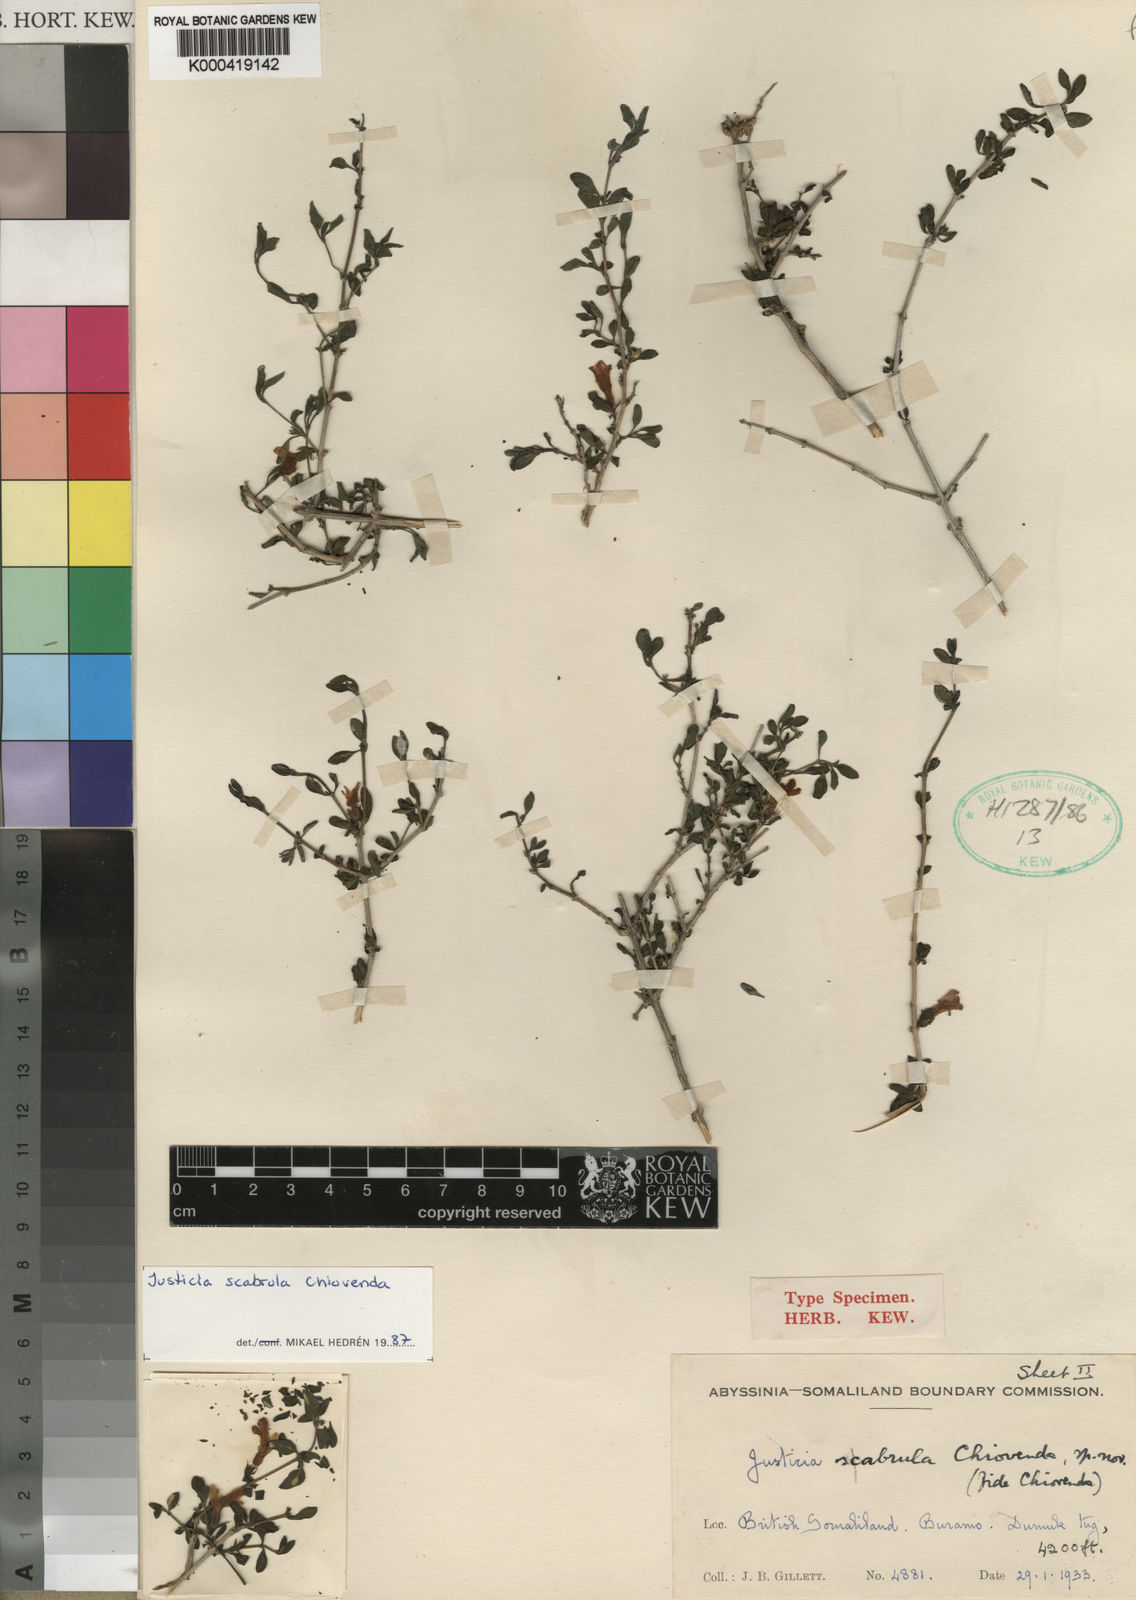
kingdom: Plantae
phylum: Tracheophyta
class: Magnoliopsida
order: Lamiales
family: Acanthaceae
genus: Justicia
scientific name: Justicia
